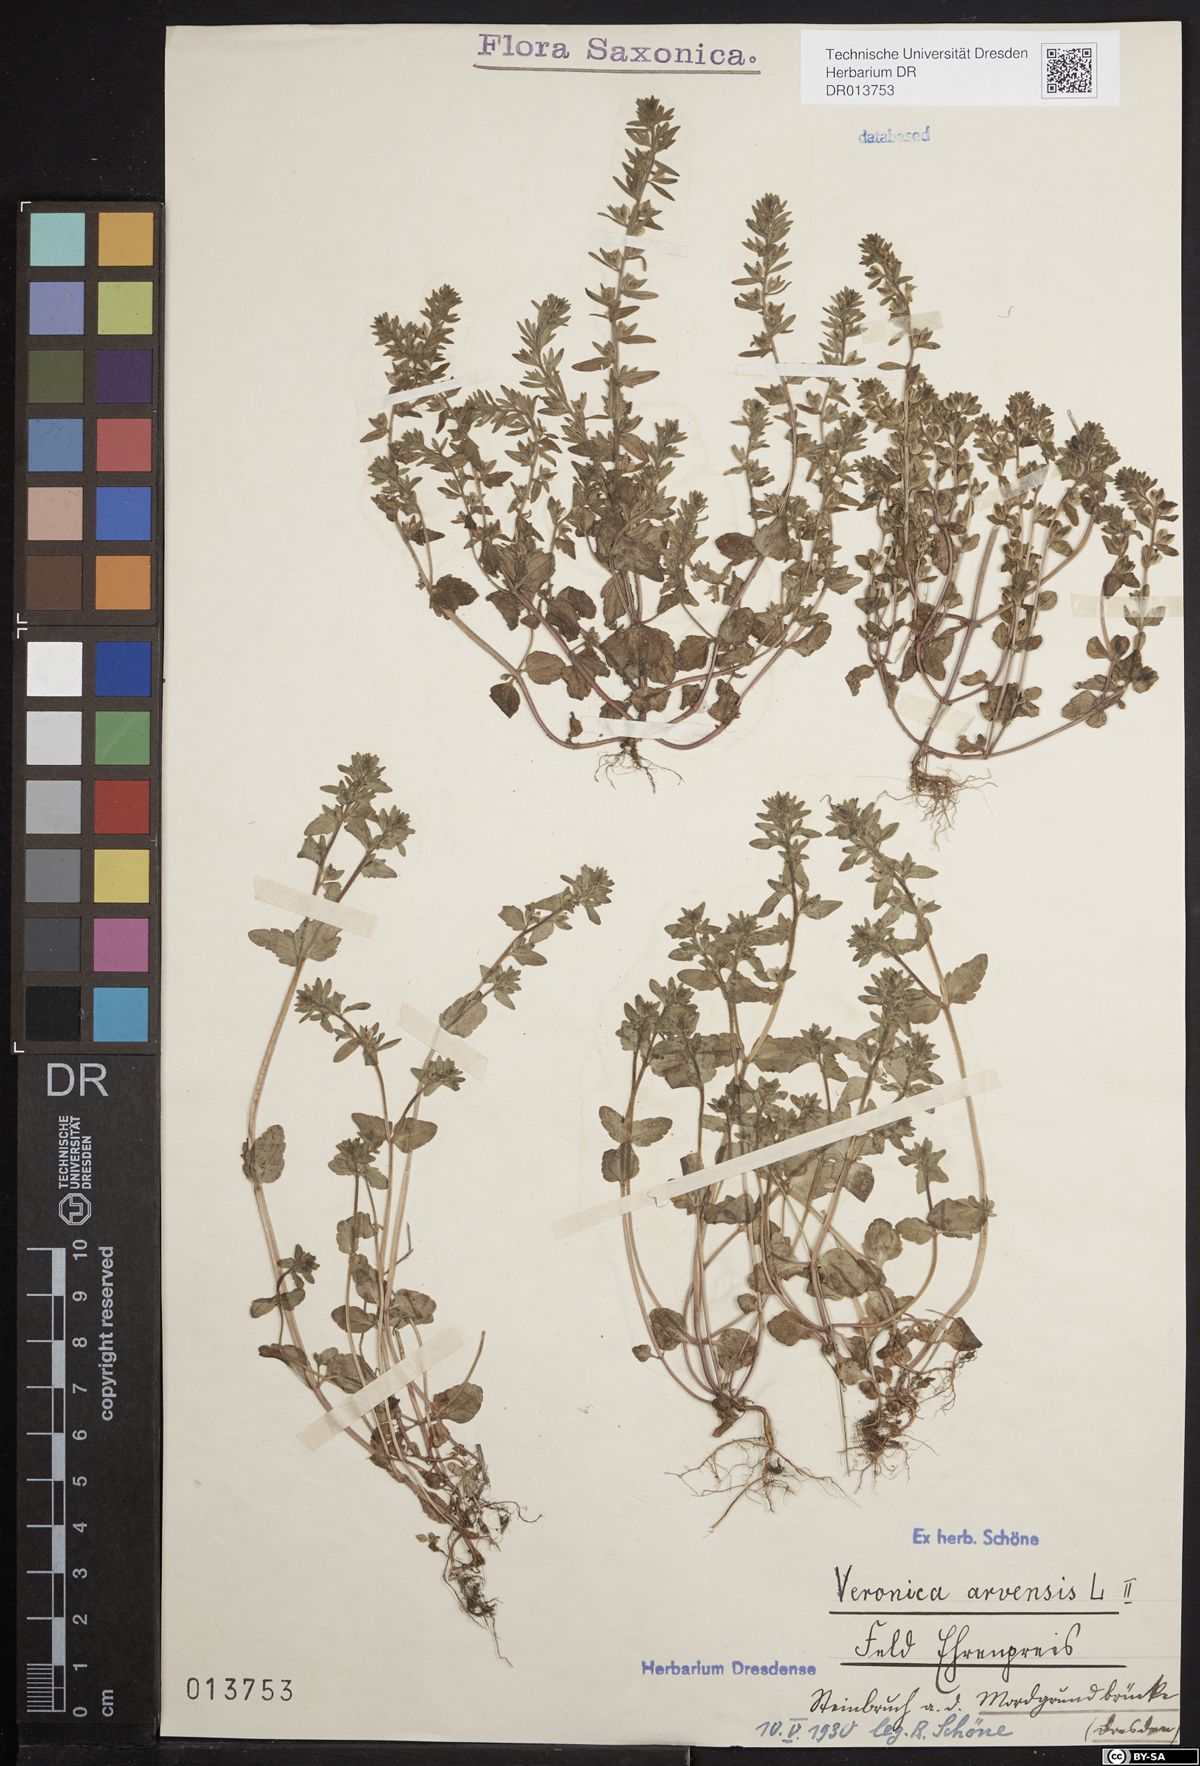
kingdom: Plantae
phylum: Tracheophyta
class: Magnoliopsida
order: Lamiales
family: Plantaginaceae
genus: Veronica
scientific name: Veronica arvensis
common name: Corn speedwell
